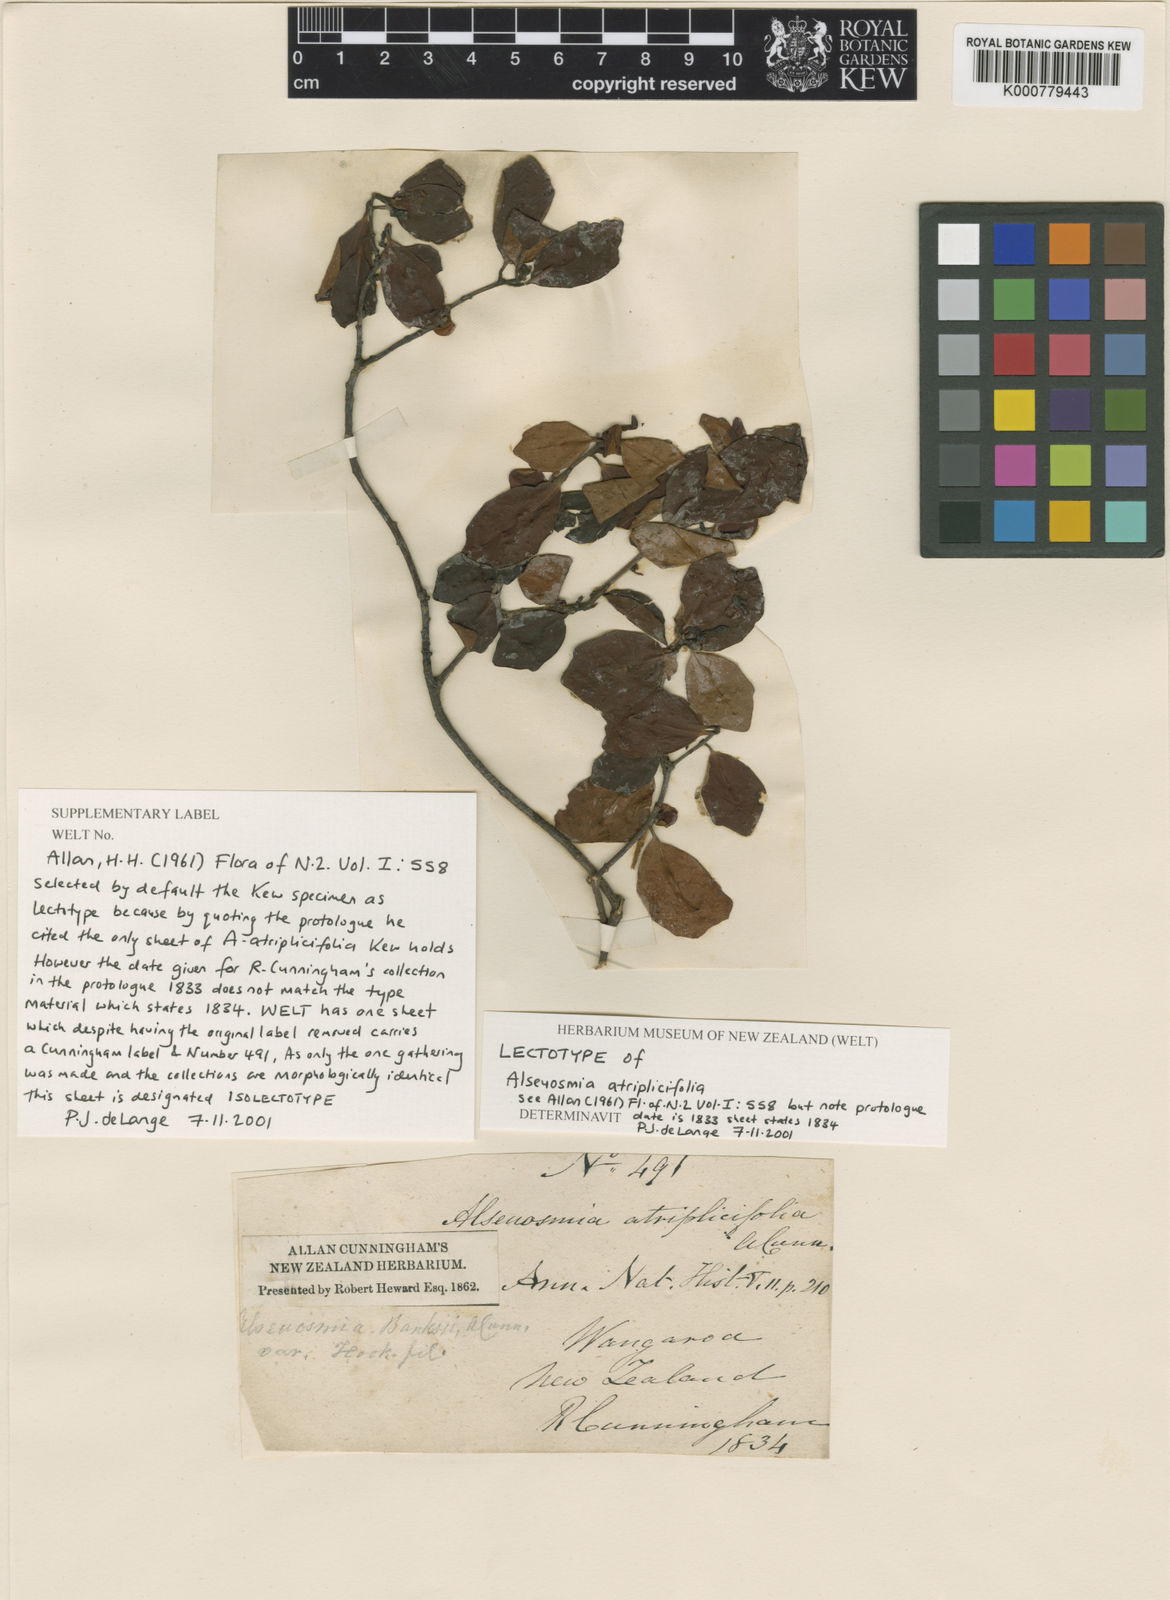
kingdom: Plantae
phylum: Tracheophyta
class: Magnoliopsida
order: Asterales
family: Alseuosmiaceae
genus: Alseuosmia
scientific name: Alseuosmia banksii
